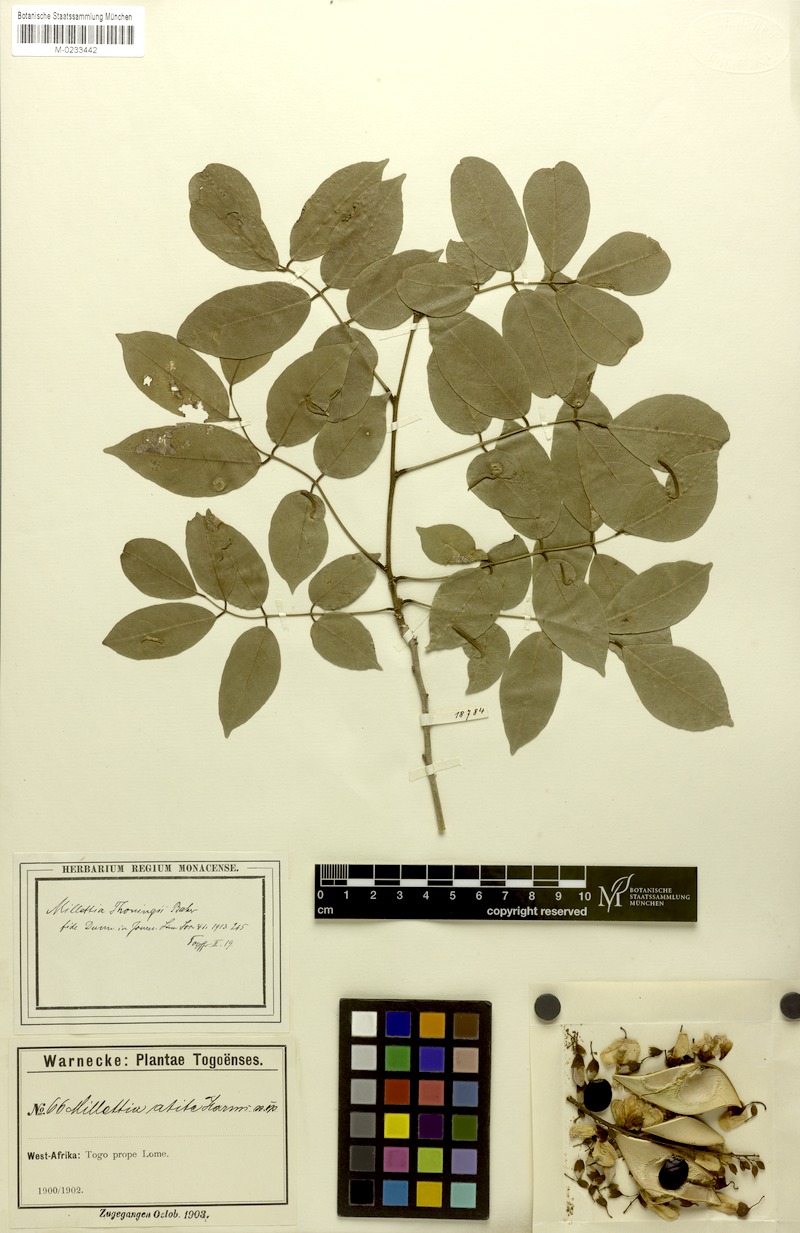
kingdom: Plantae
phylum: Tracheophyta
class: Magnoliopsida
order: Fabales
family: Fabaceae
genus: Millettia
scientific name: Millettia thonningii
